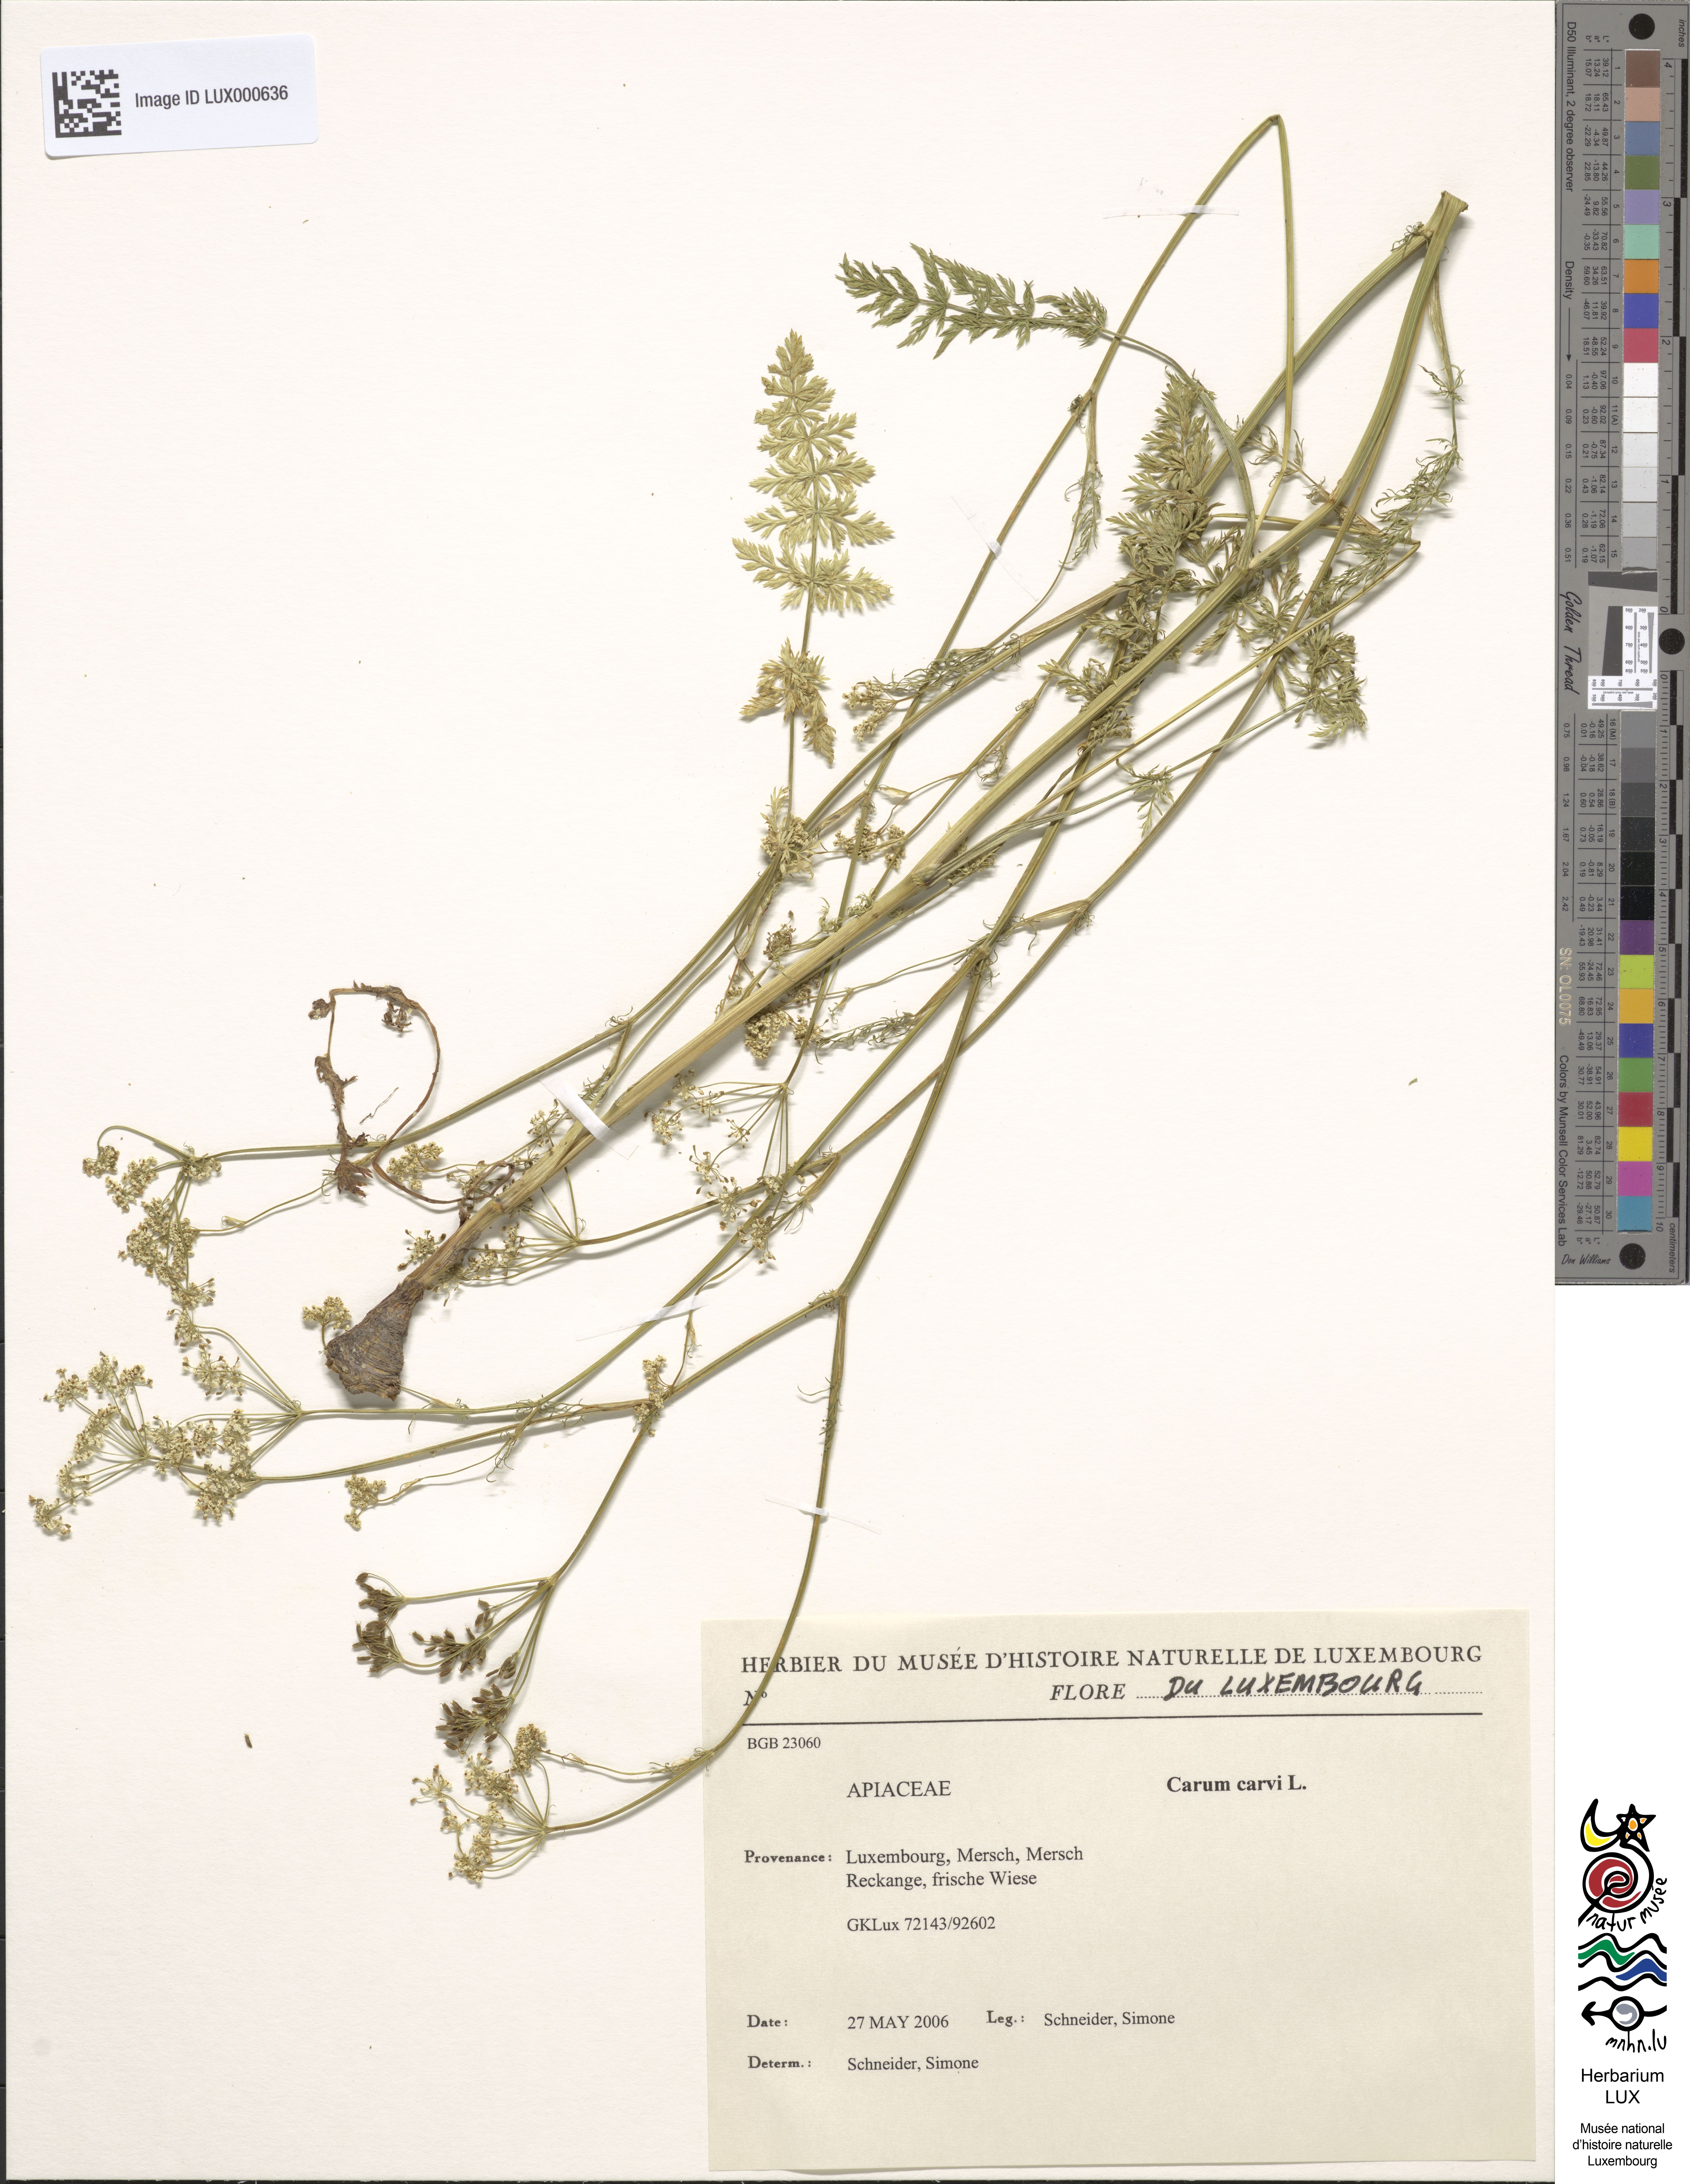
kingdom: Plantae
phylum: Tracheophyta
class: Magnoliopsida
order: Apiales
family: Apiaceae
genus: Carum
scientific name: Carum carvi
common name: Caraway
